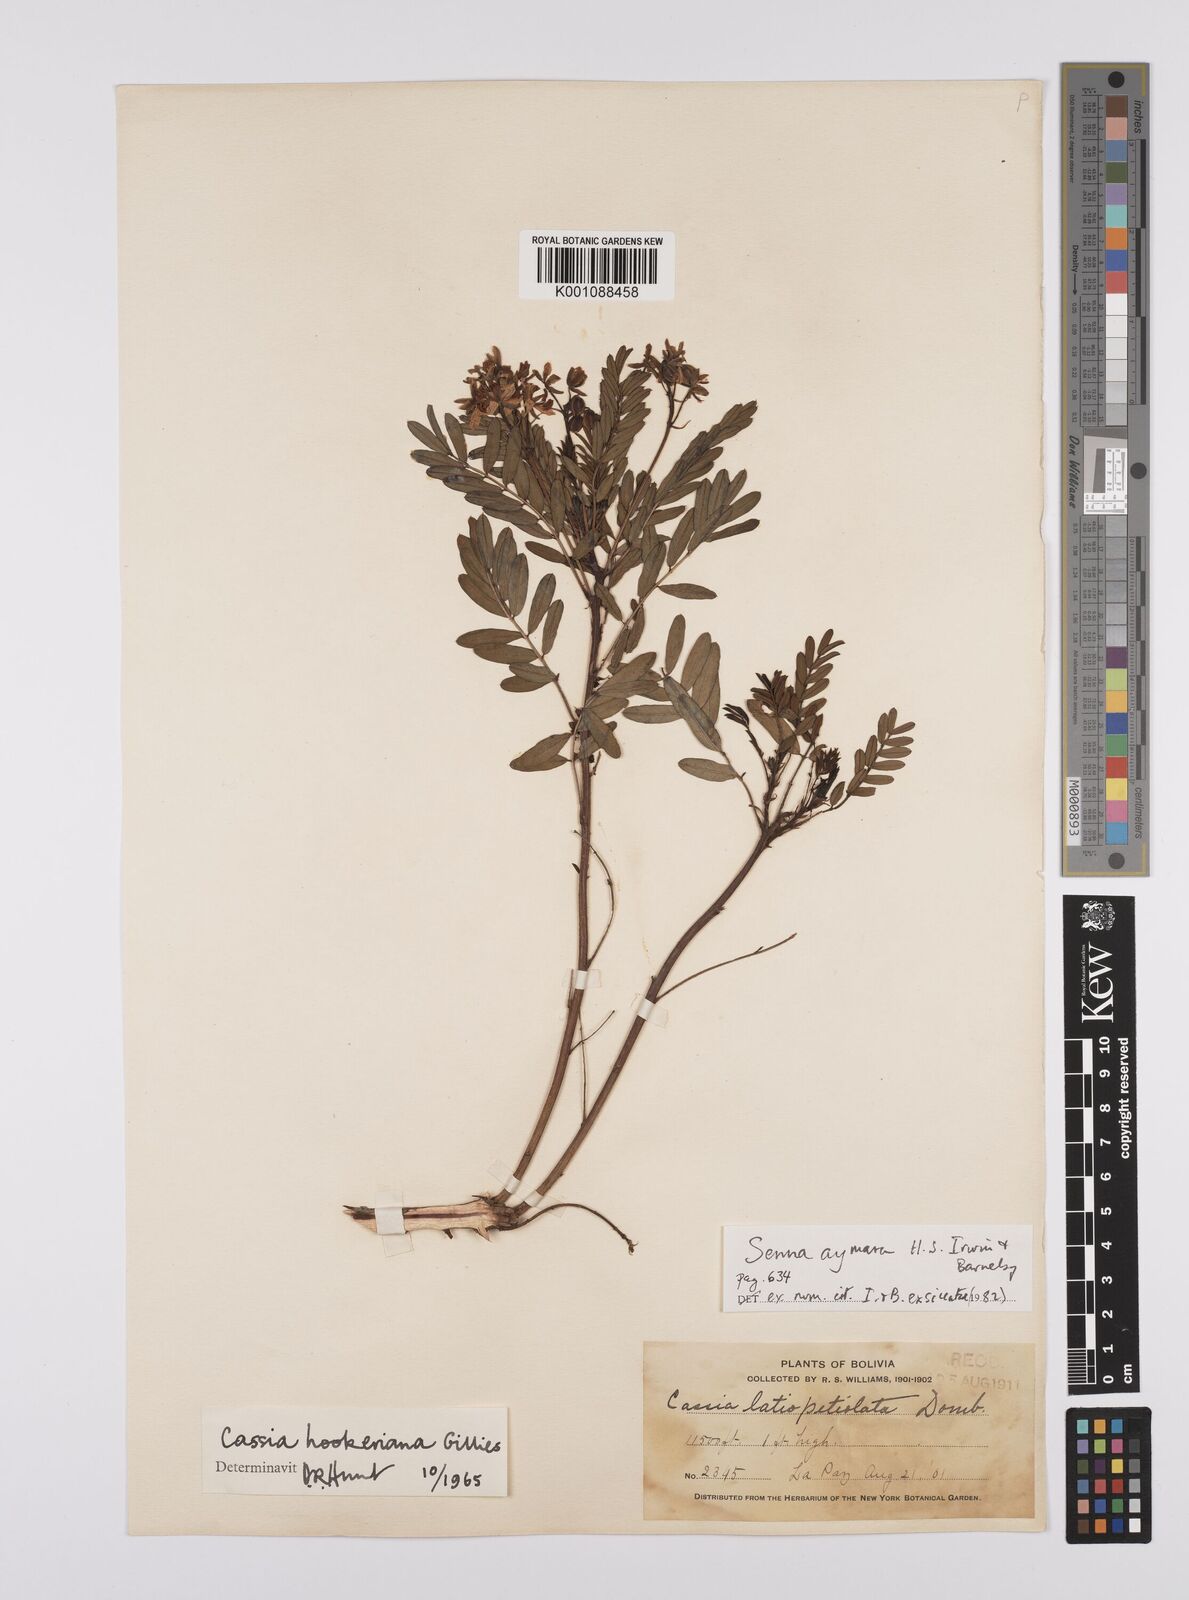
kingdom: Plantae
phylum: Tracheophyta
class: Magnoliopsida
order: Fabales
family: Fabaceae
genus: Senna
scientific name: Senna aymara
